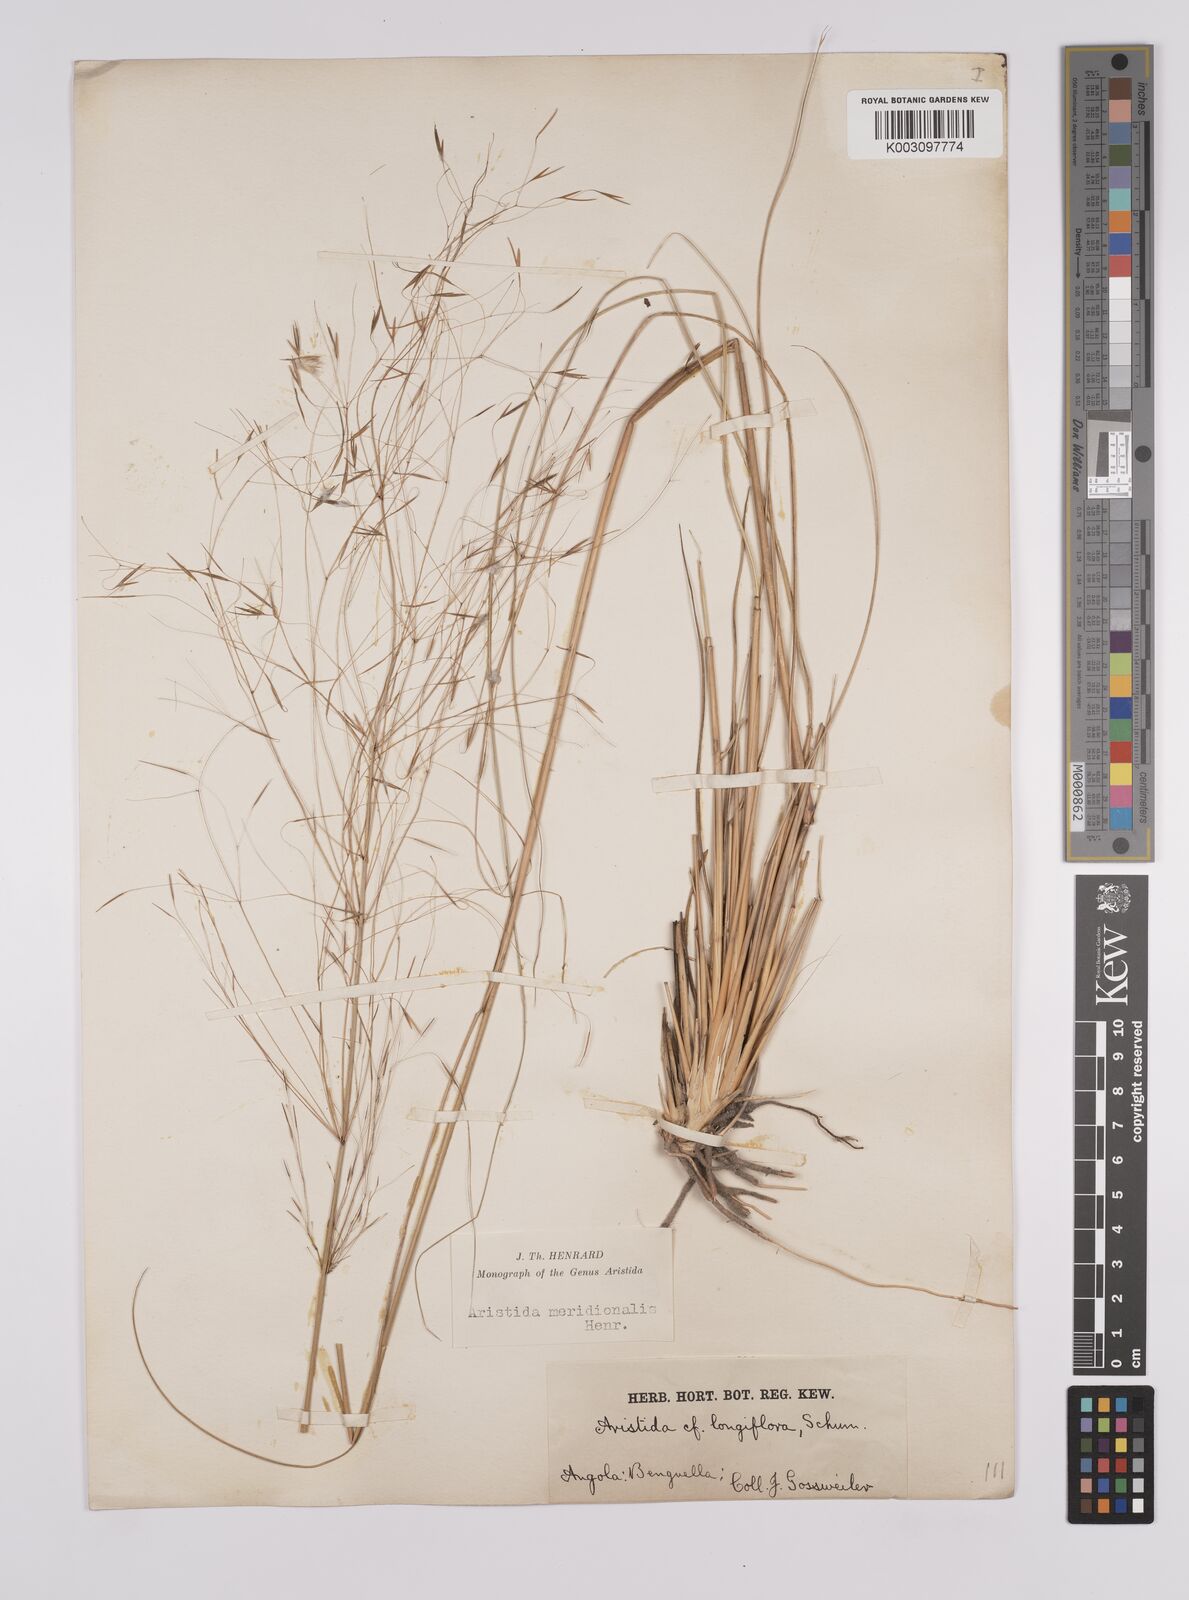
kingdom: Plantae
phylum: Tracheophyta
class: Liliopsida
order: Poales
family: Poaceae
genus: Aristida
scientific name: Aristida meridionalis
